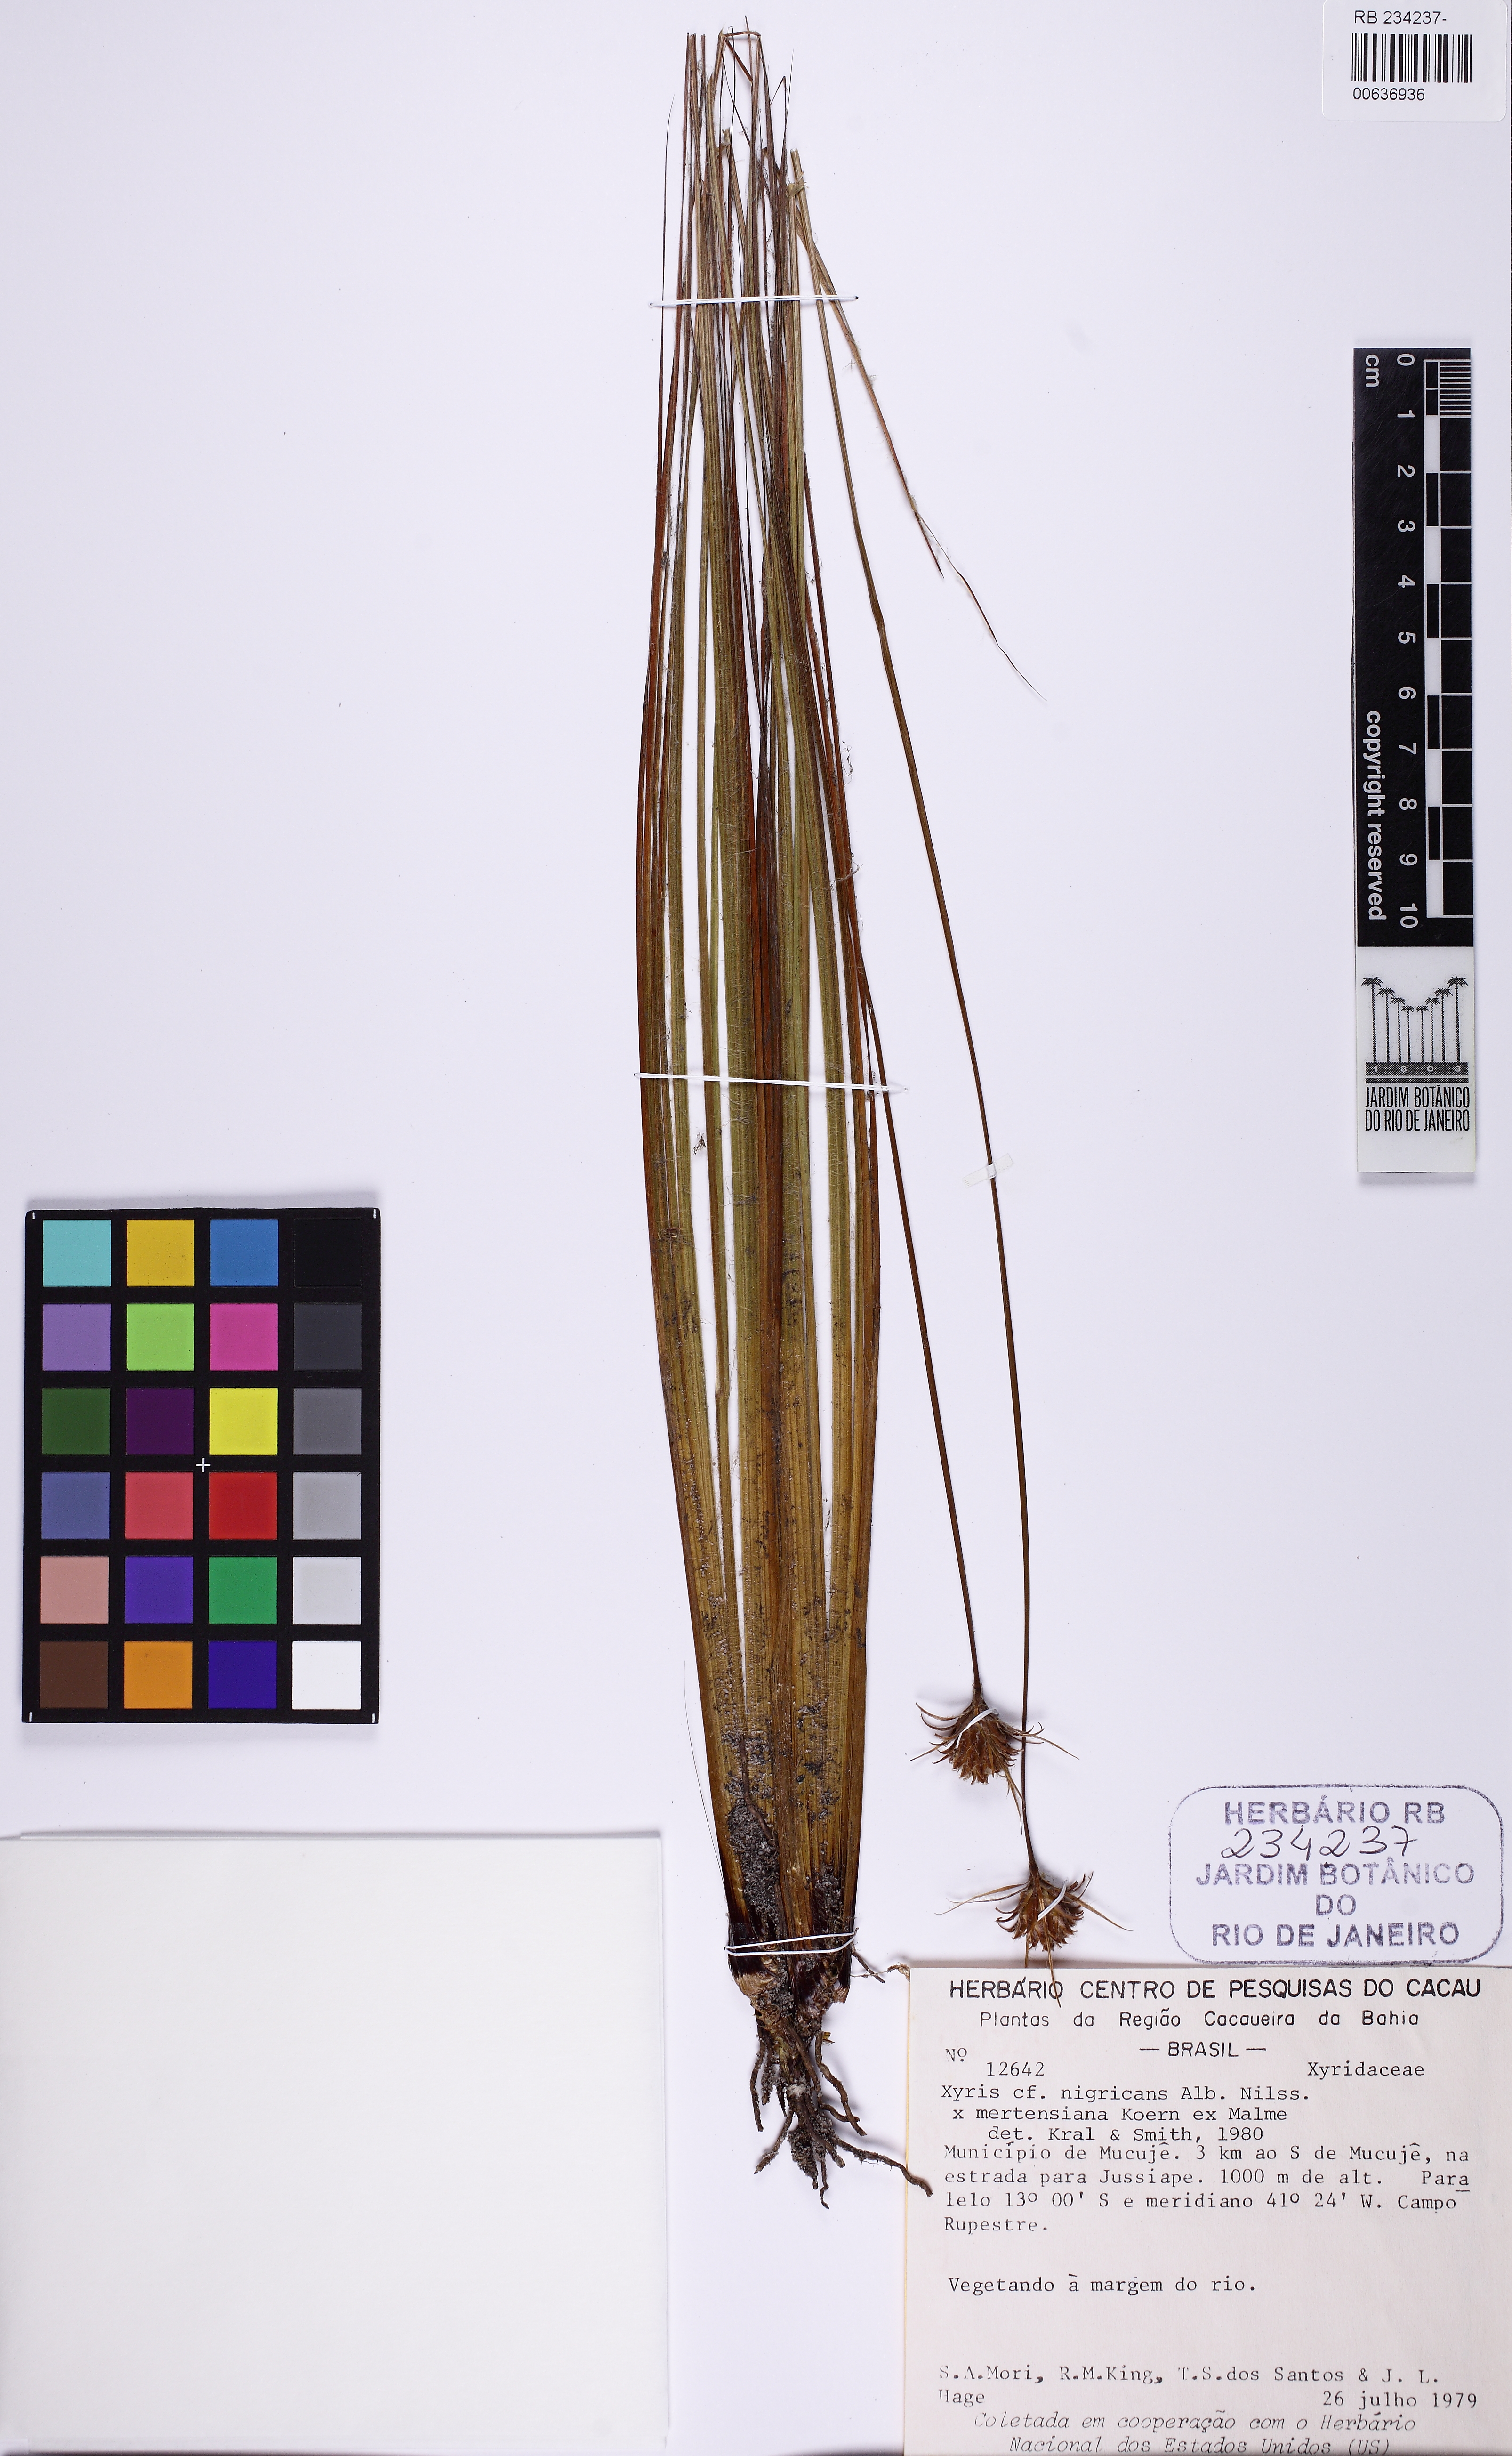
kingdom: Plantae
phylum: Tracheophyta
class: Liliopsida
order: Poales
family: Xyridaceae
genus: Xyris
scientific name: Xyris mertensiana
